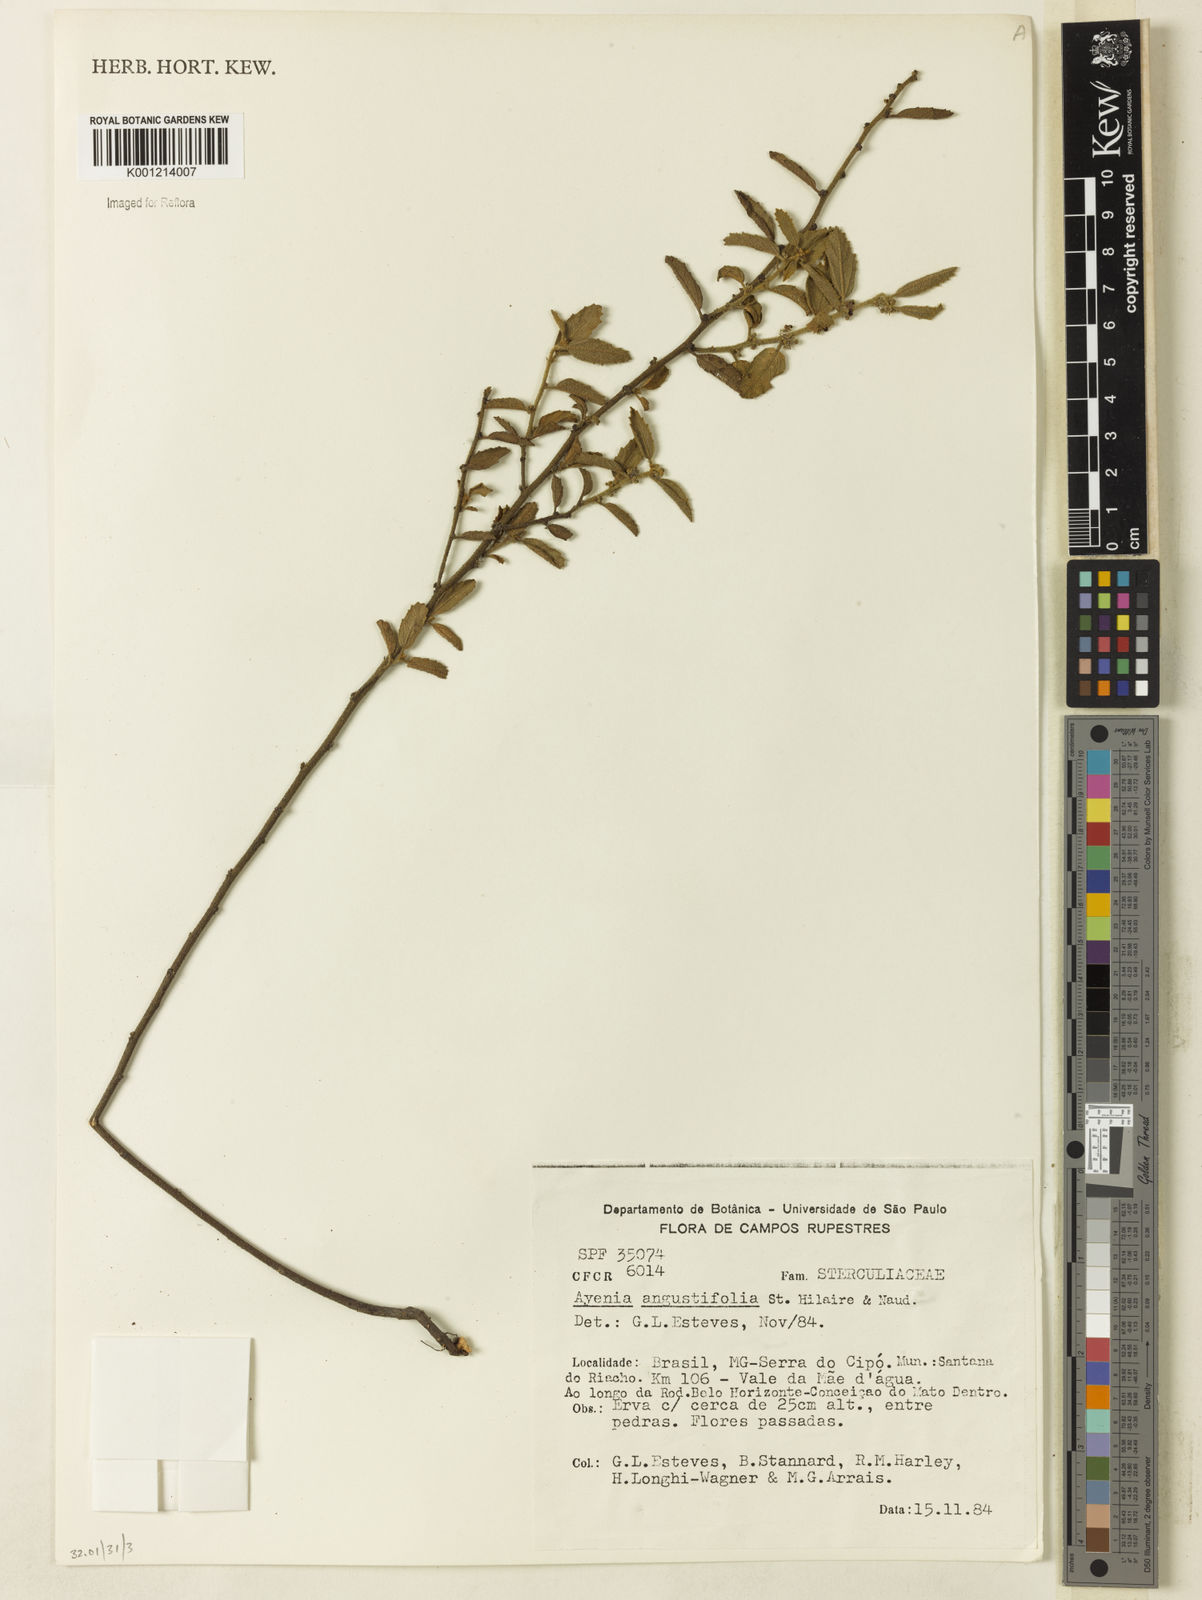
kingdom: Plantae
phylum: Tracheophyta
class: Magnoliopsida
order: Malvales
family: Malvaceae
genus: Ayenia
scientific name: Ayenia angustifolia
